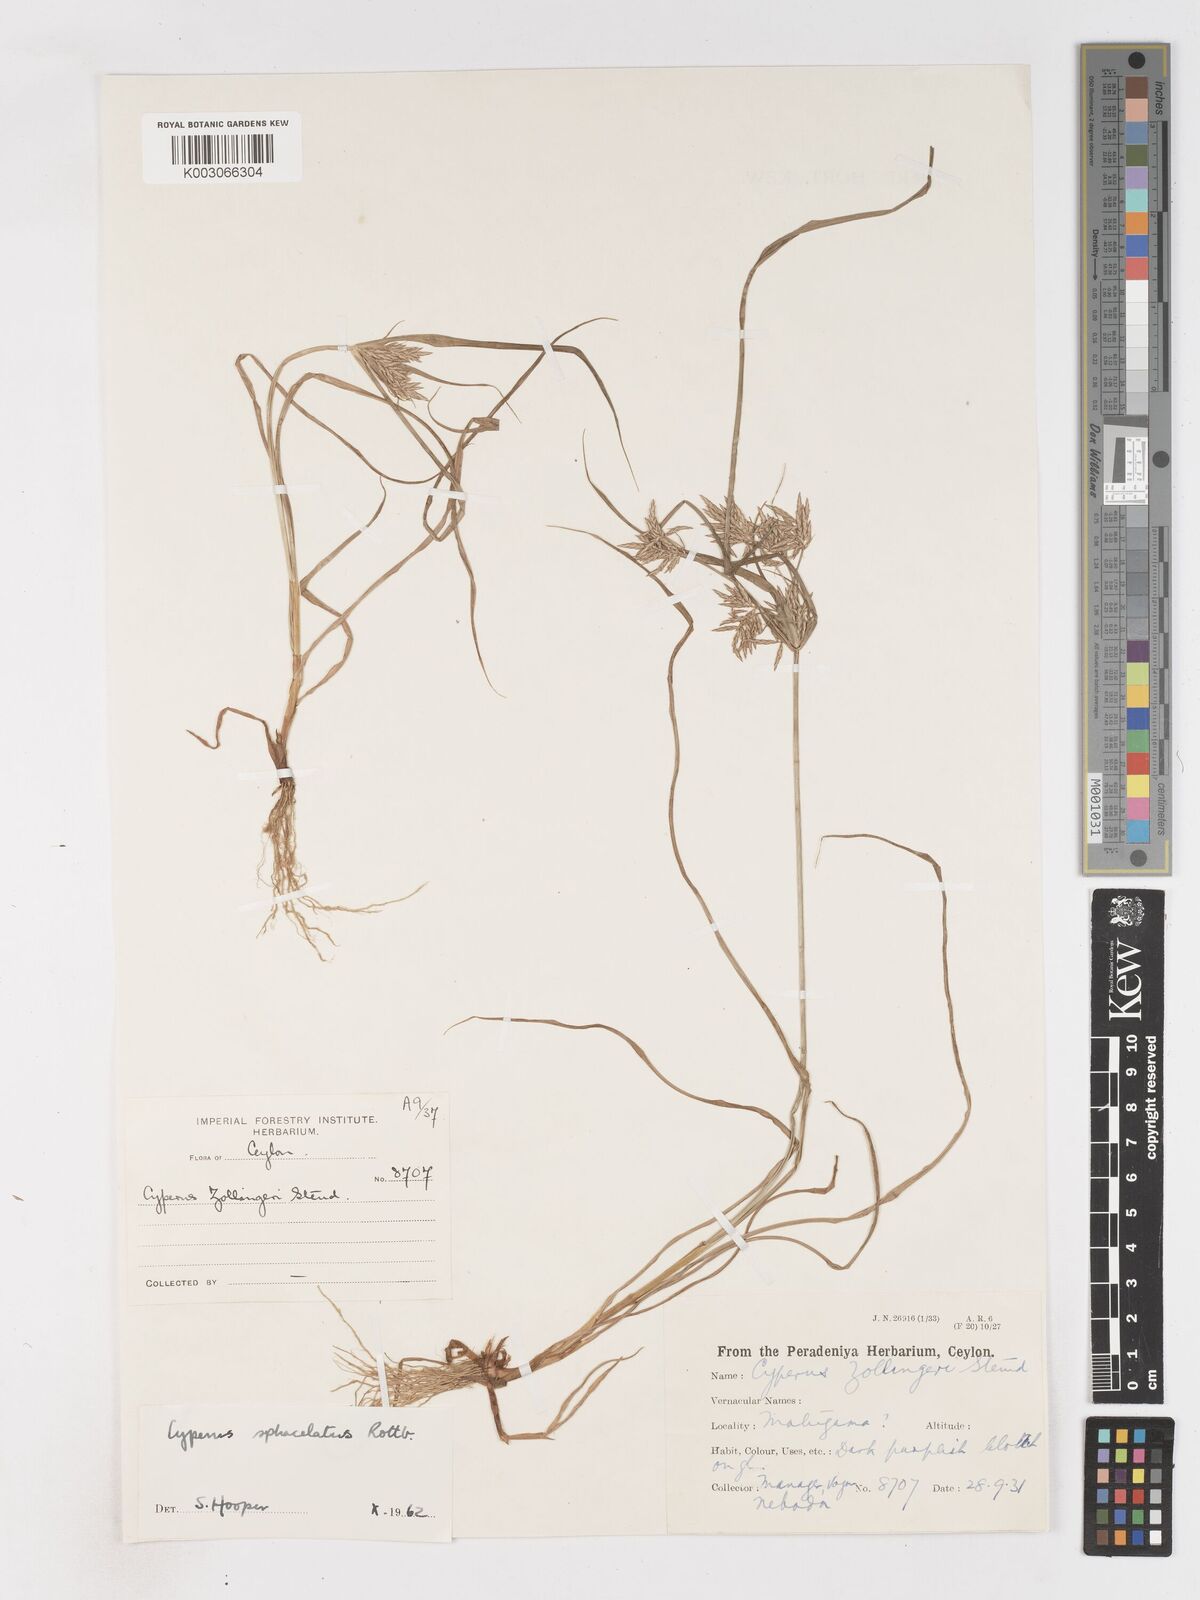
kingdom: Plantae
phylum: Tracheophyta
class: Liliopsida
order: Poales
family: Cyperaceae
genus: Cyperus
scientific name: Cyperus sphacelatus
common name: Roadside flatsedge
